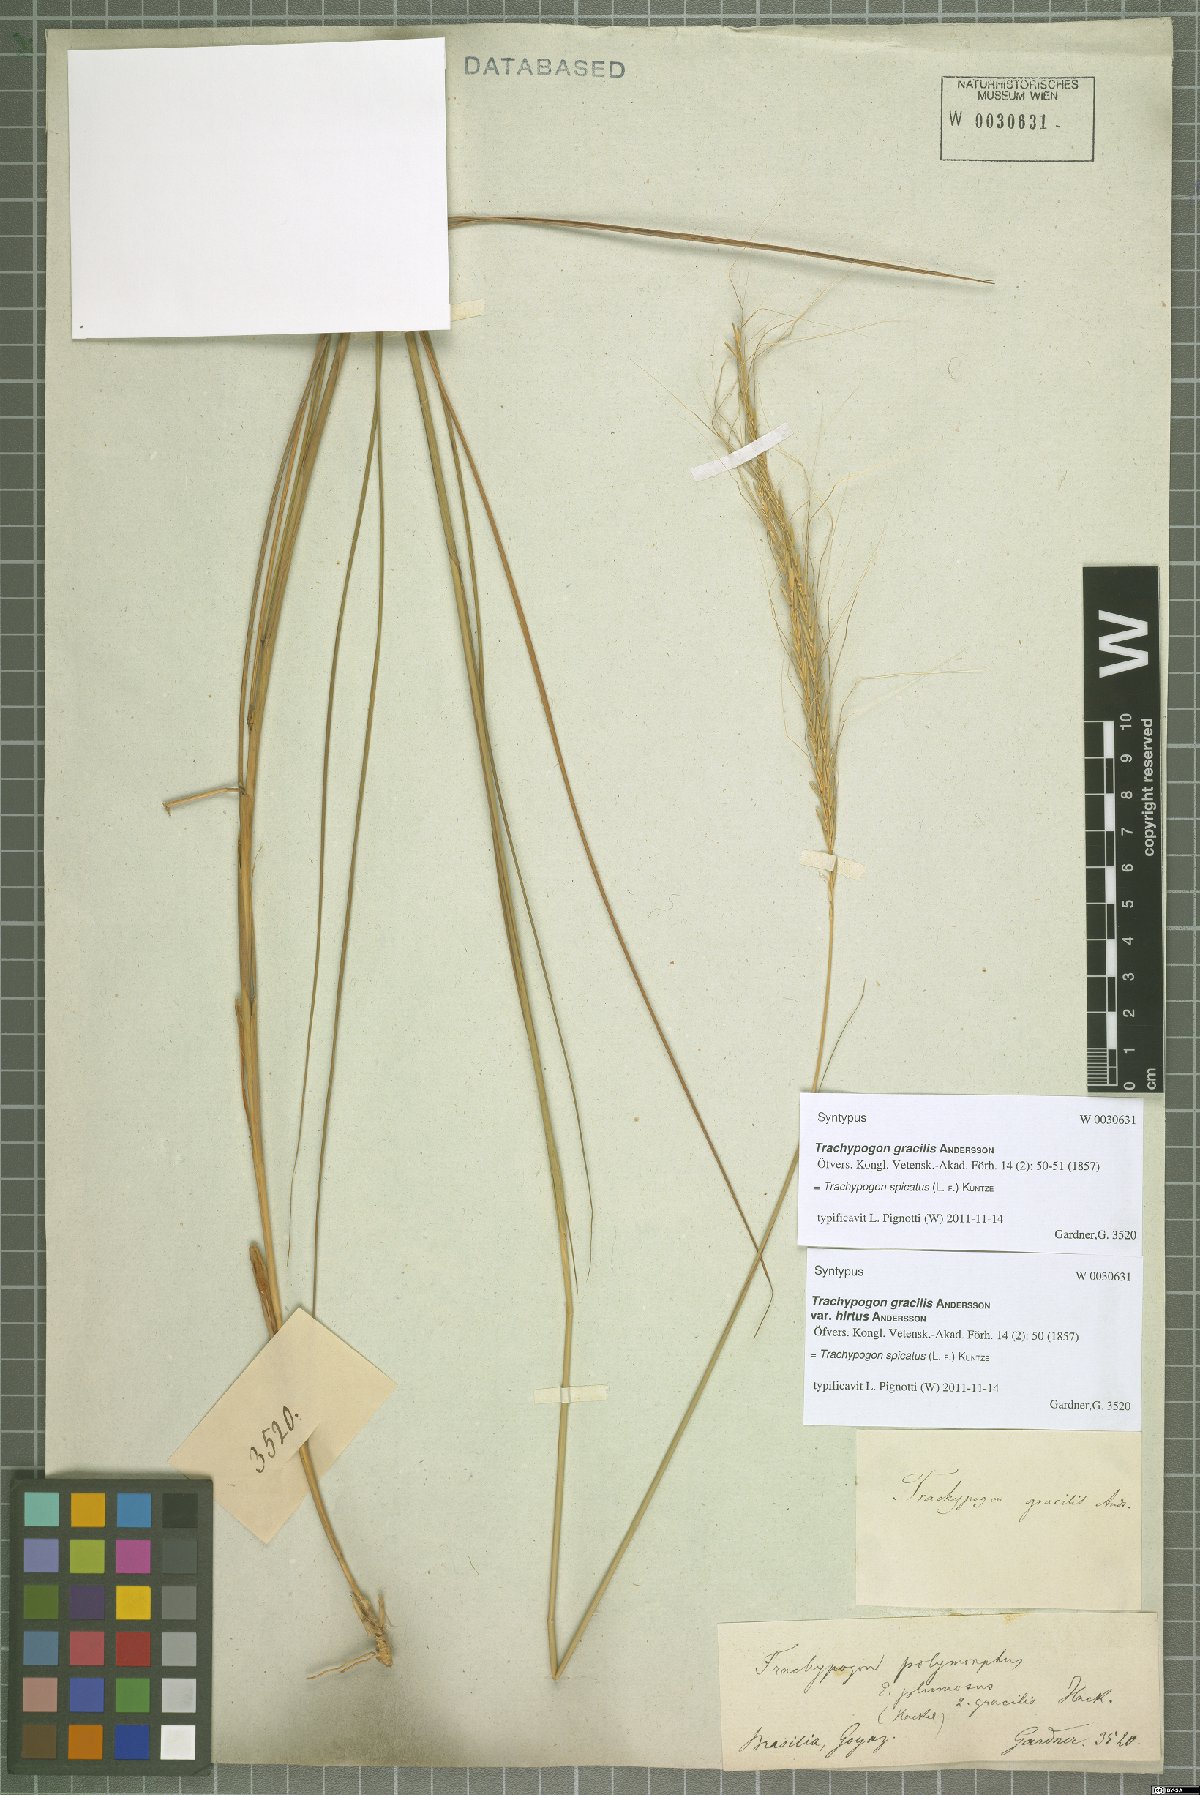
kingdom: Plantae
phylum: Tracheophyta
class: Liliopsida
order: Poales
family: Poaceae
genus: Trachypogon
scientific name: Trachypogon spicatus
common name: Crinkle-awn
